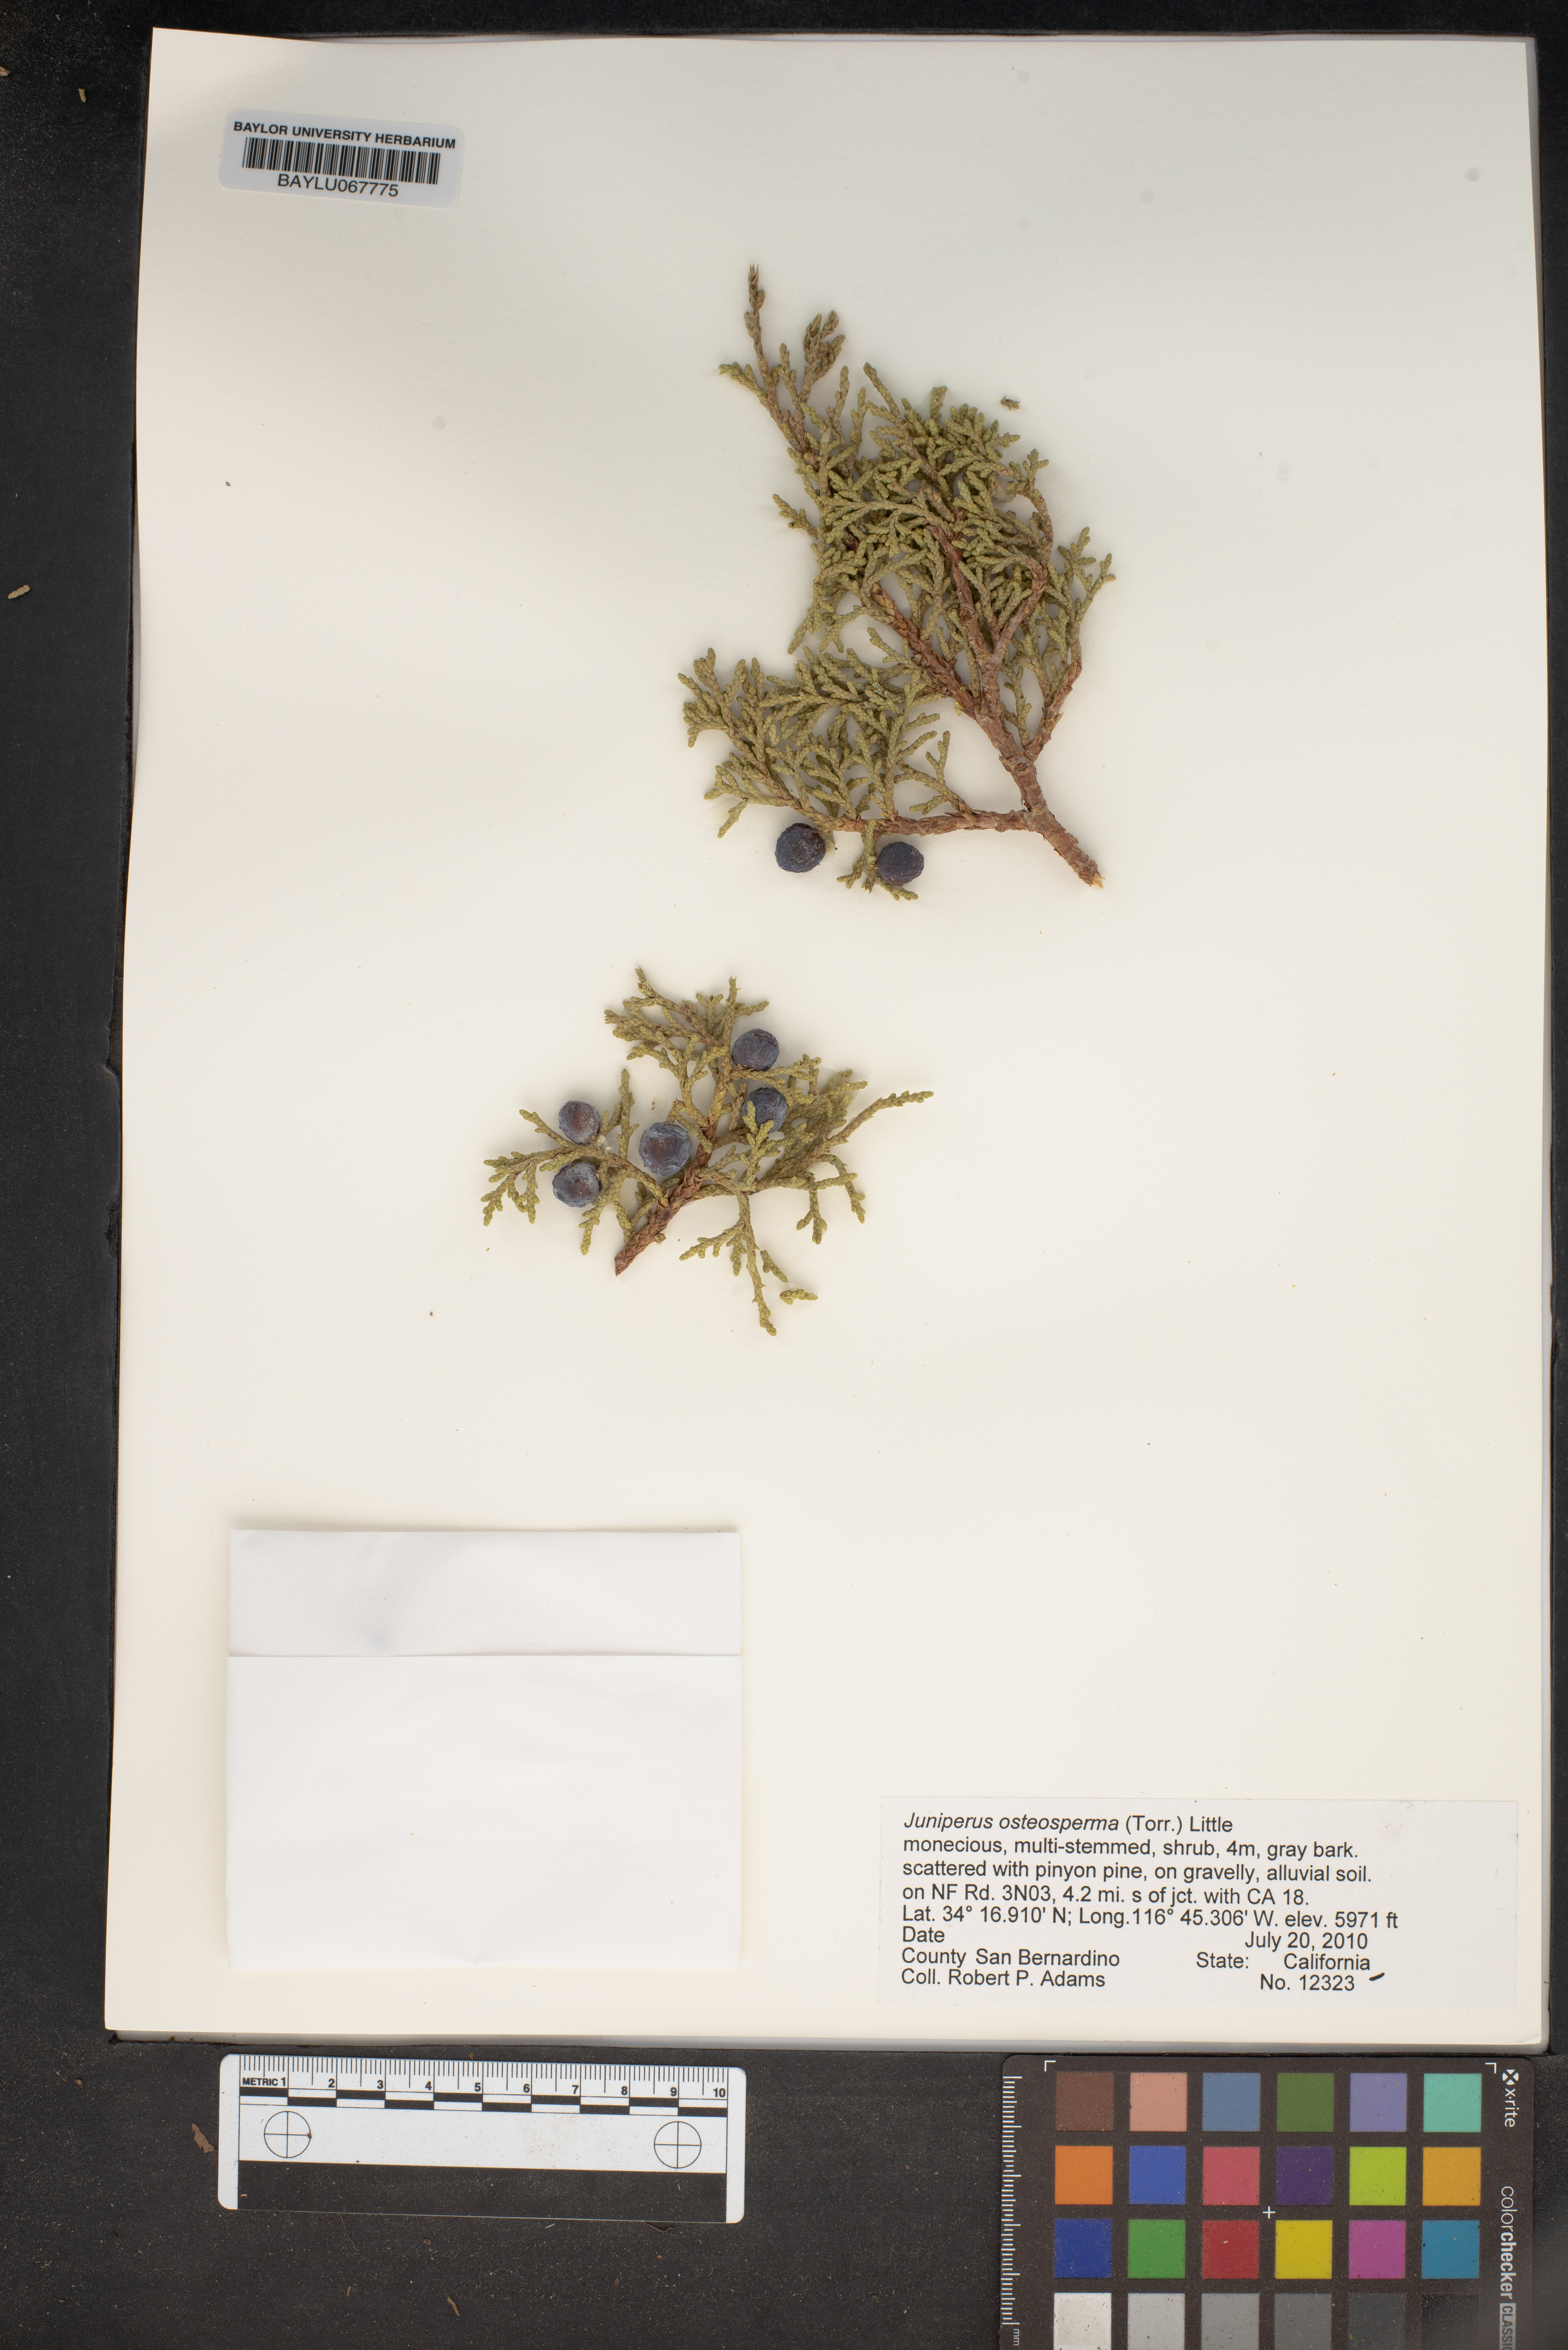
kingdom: Plantae
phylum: Tracheophyta
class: Pinopsida
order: Pinales
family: Cupressaceae
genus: Juniperus
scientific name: Juniperus osteosperma
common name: Utah juniper
